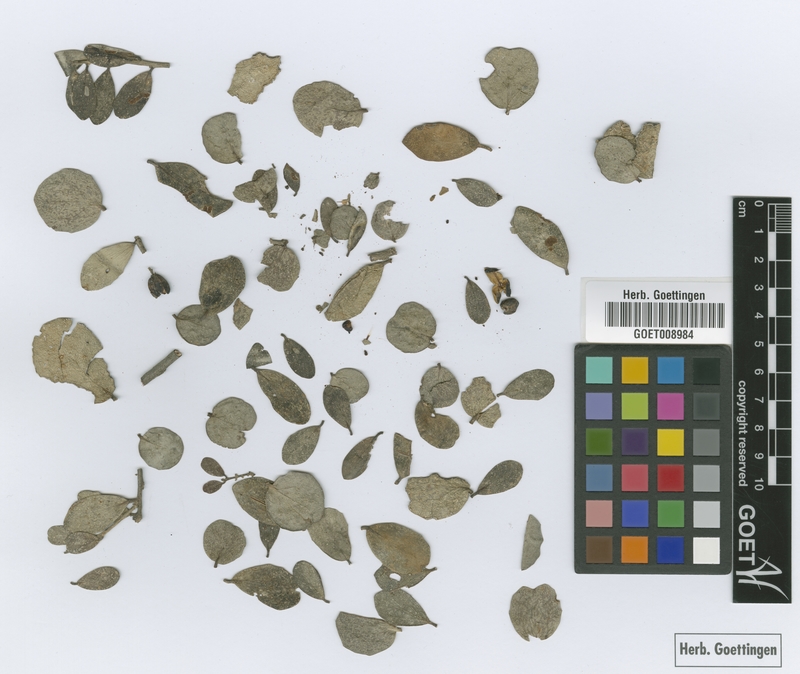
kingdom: Plantae
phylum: Tracheophyta
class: Magnoliopsida
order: Celastrales
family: Celastraceae
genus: Tricerma
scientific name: Tricerma vitis-idaeum
